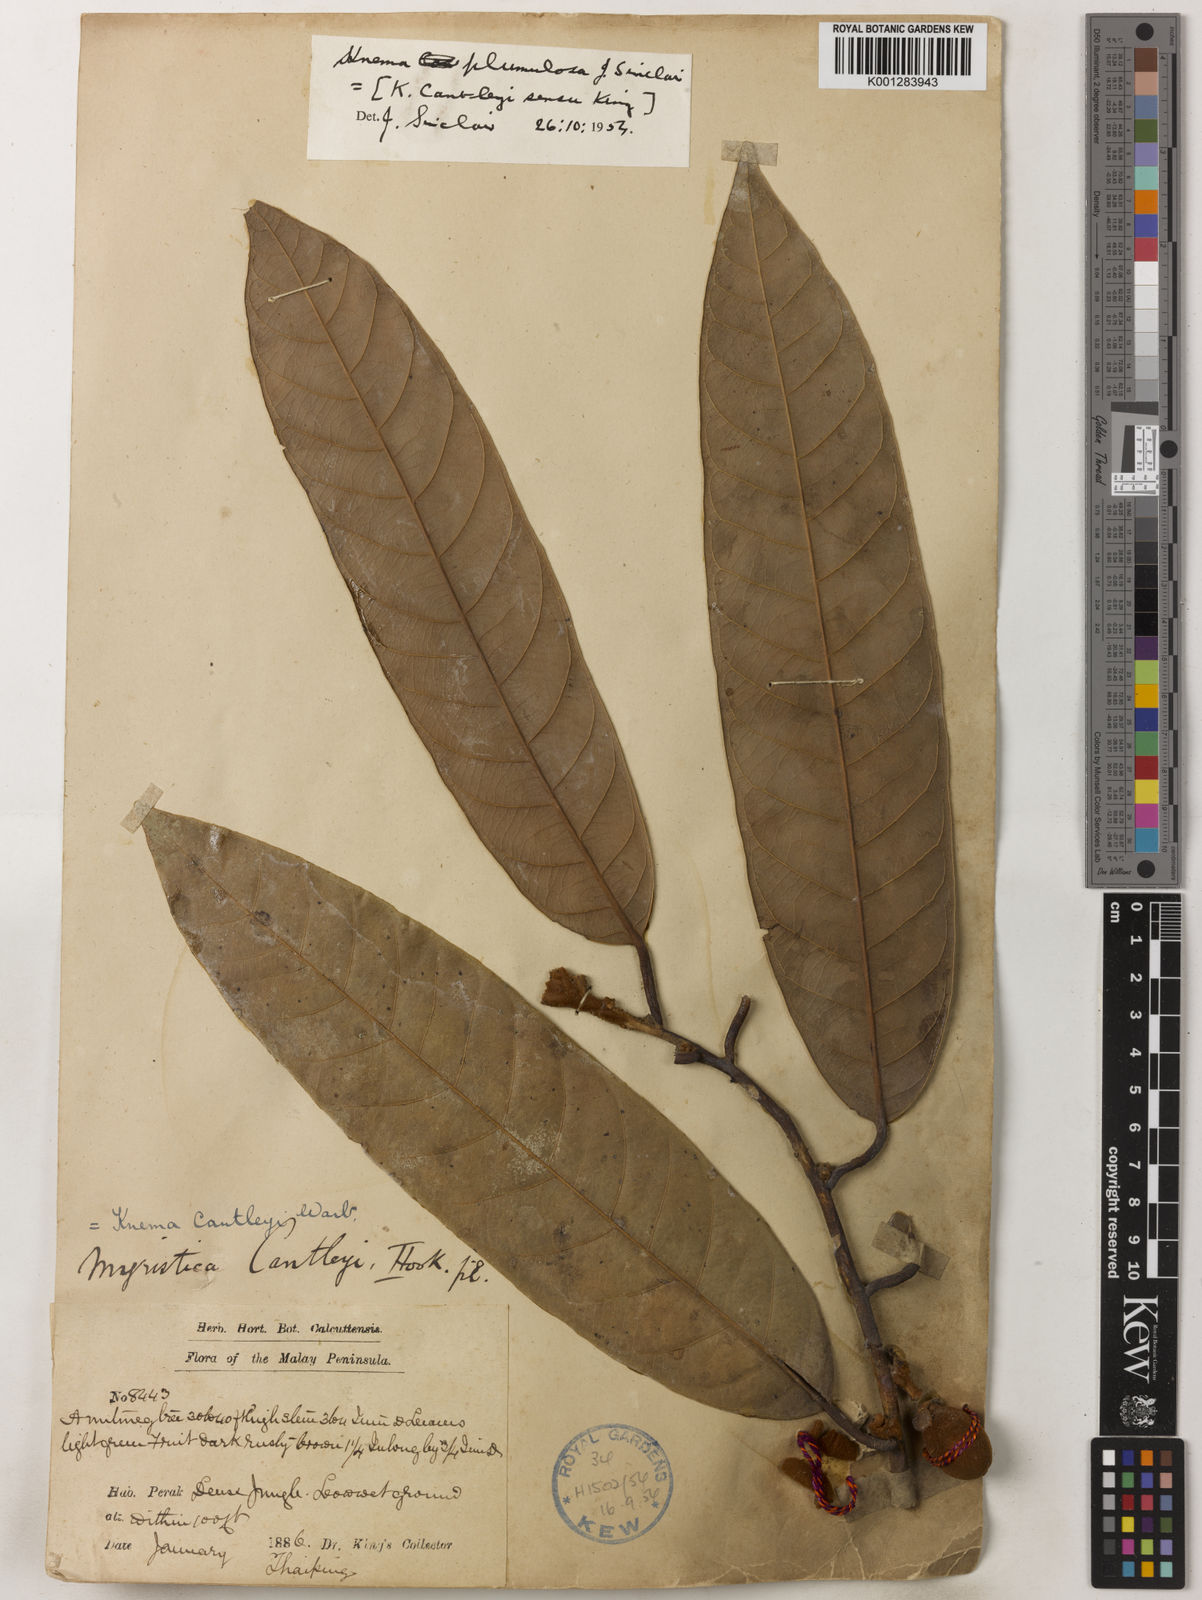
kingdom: Plantae
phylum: Tracheophyta
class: Magnoliopsida
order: Magnoliales
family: Myristicaceae
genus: Knema
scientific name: Knema plumulosa
